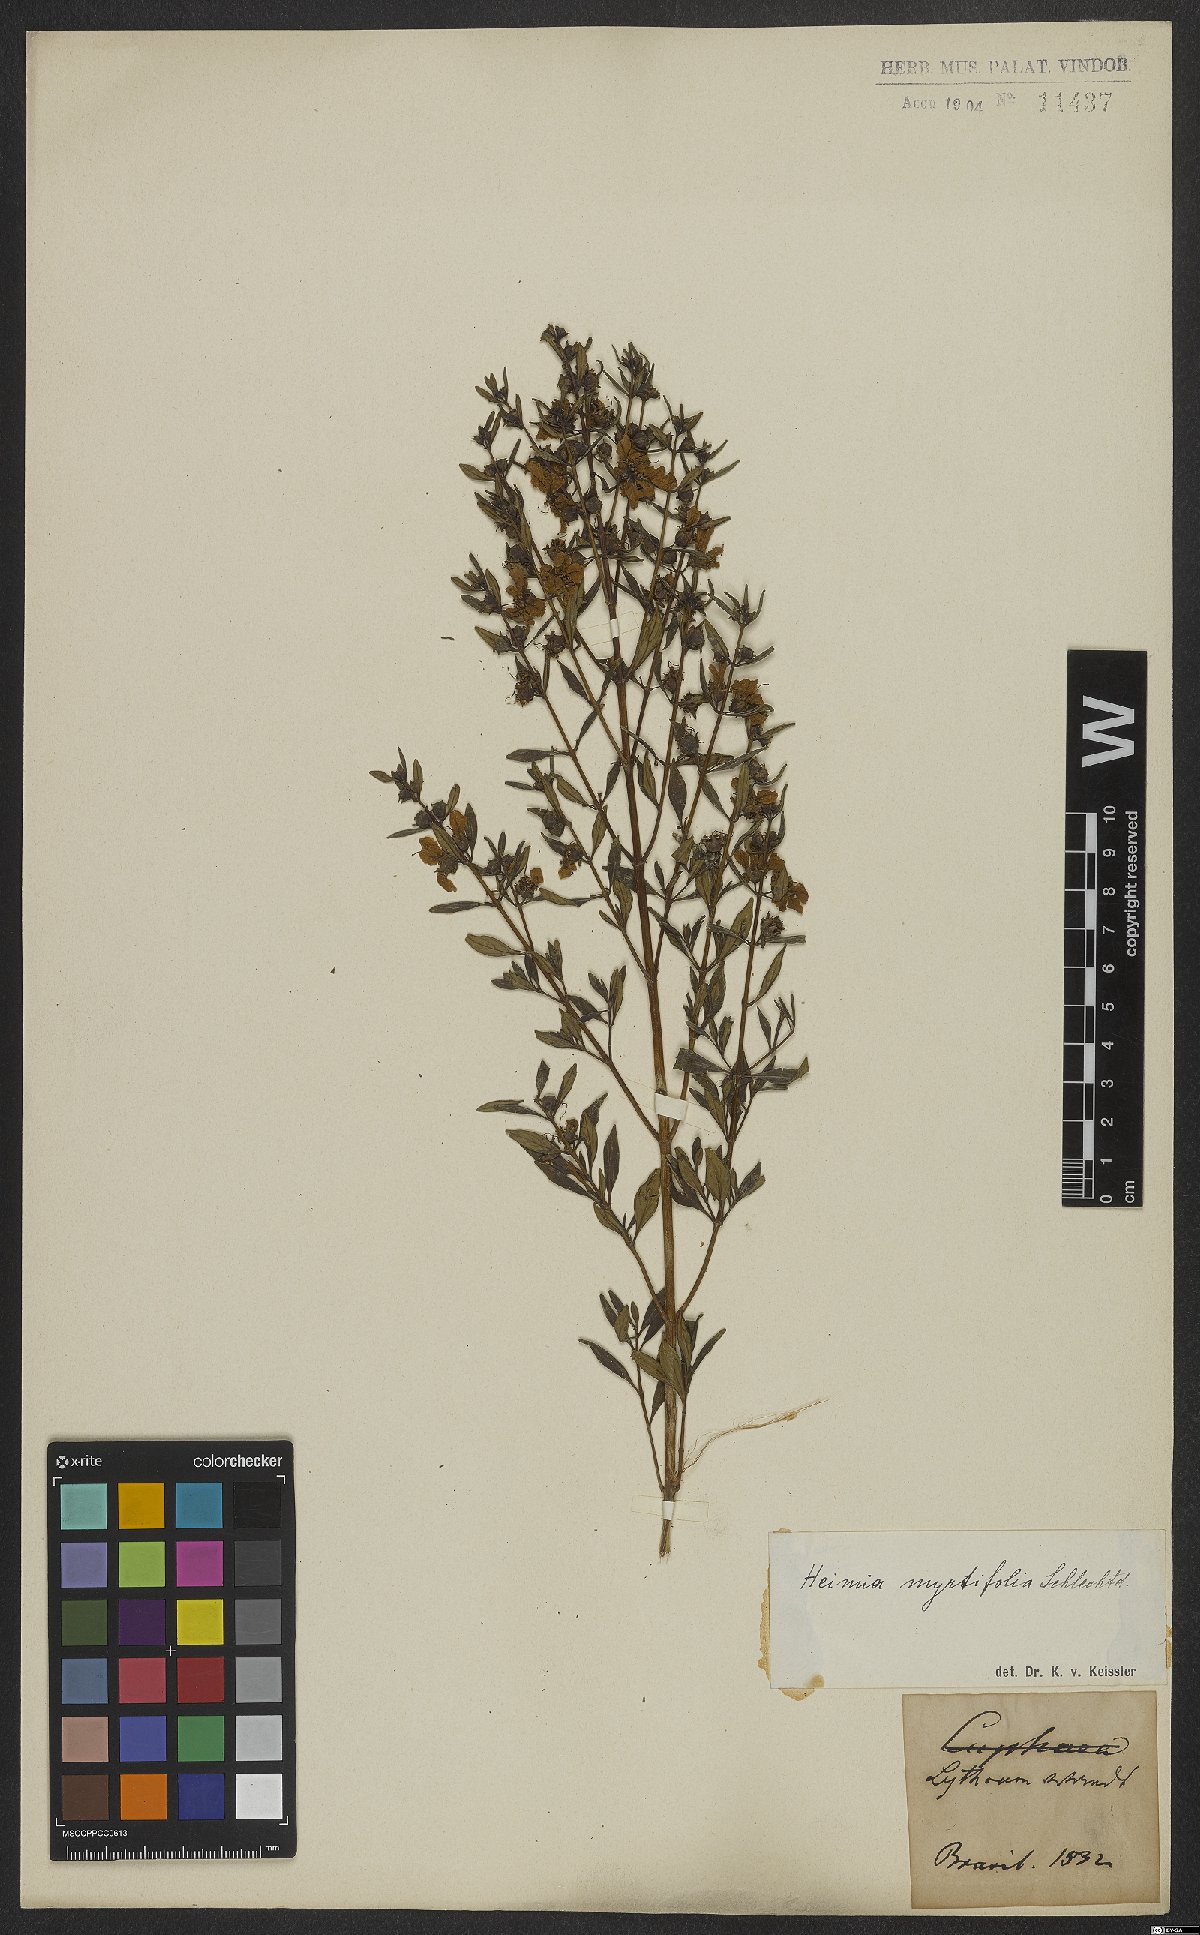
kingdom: Plantae
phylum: Tracheophyta
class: Magnoliopsida
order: Myrtales
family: Lythraceae
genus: Heimia
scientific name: Heimia apetala
